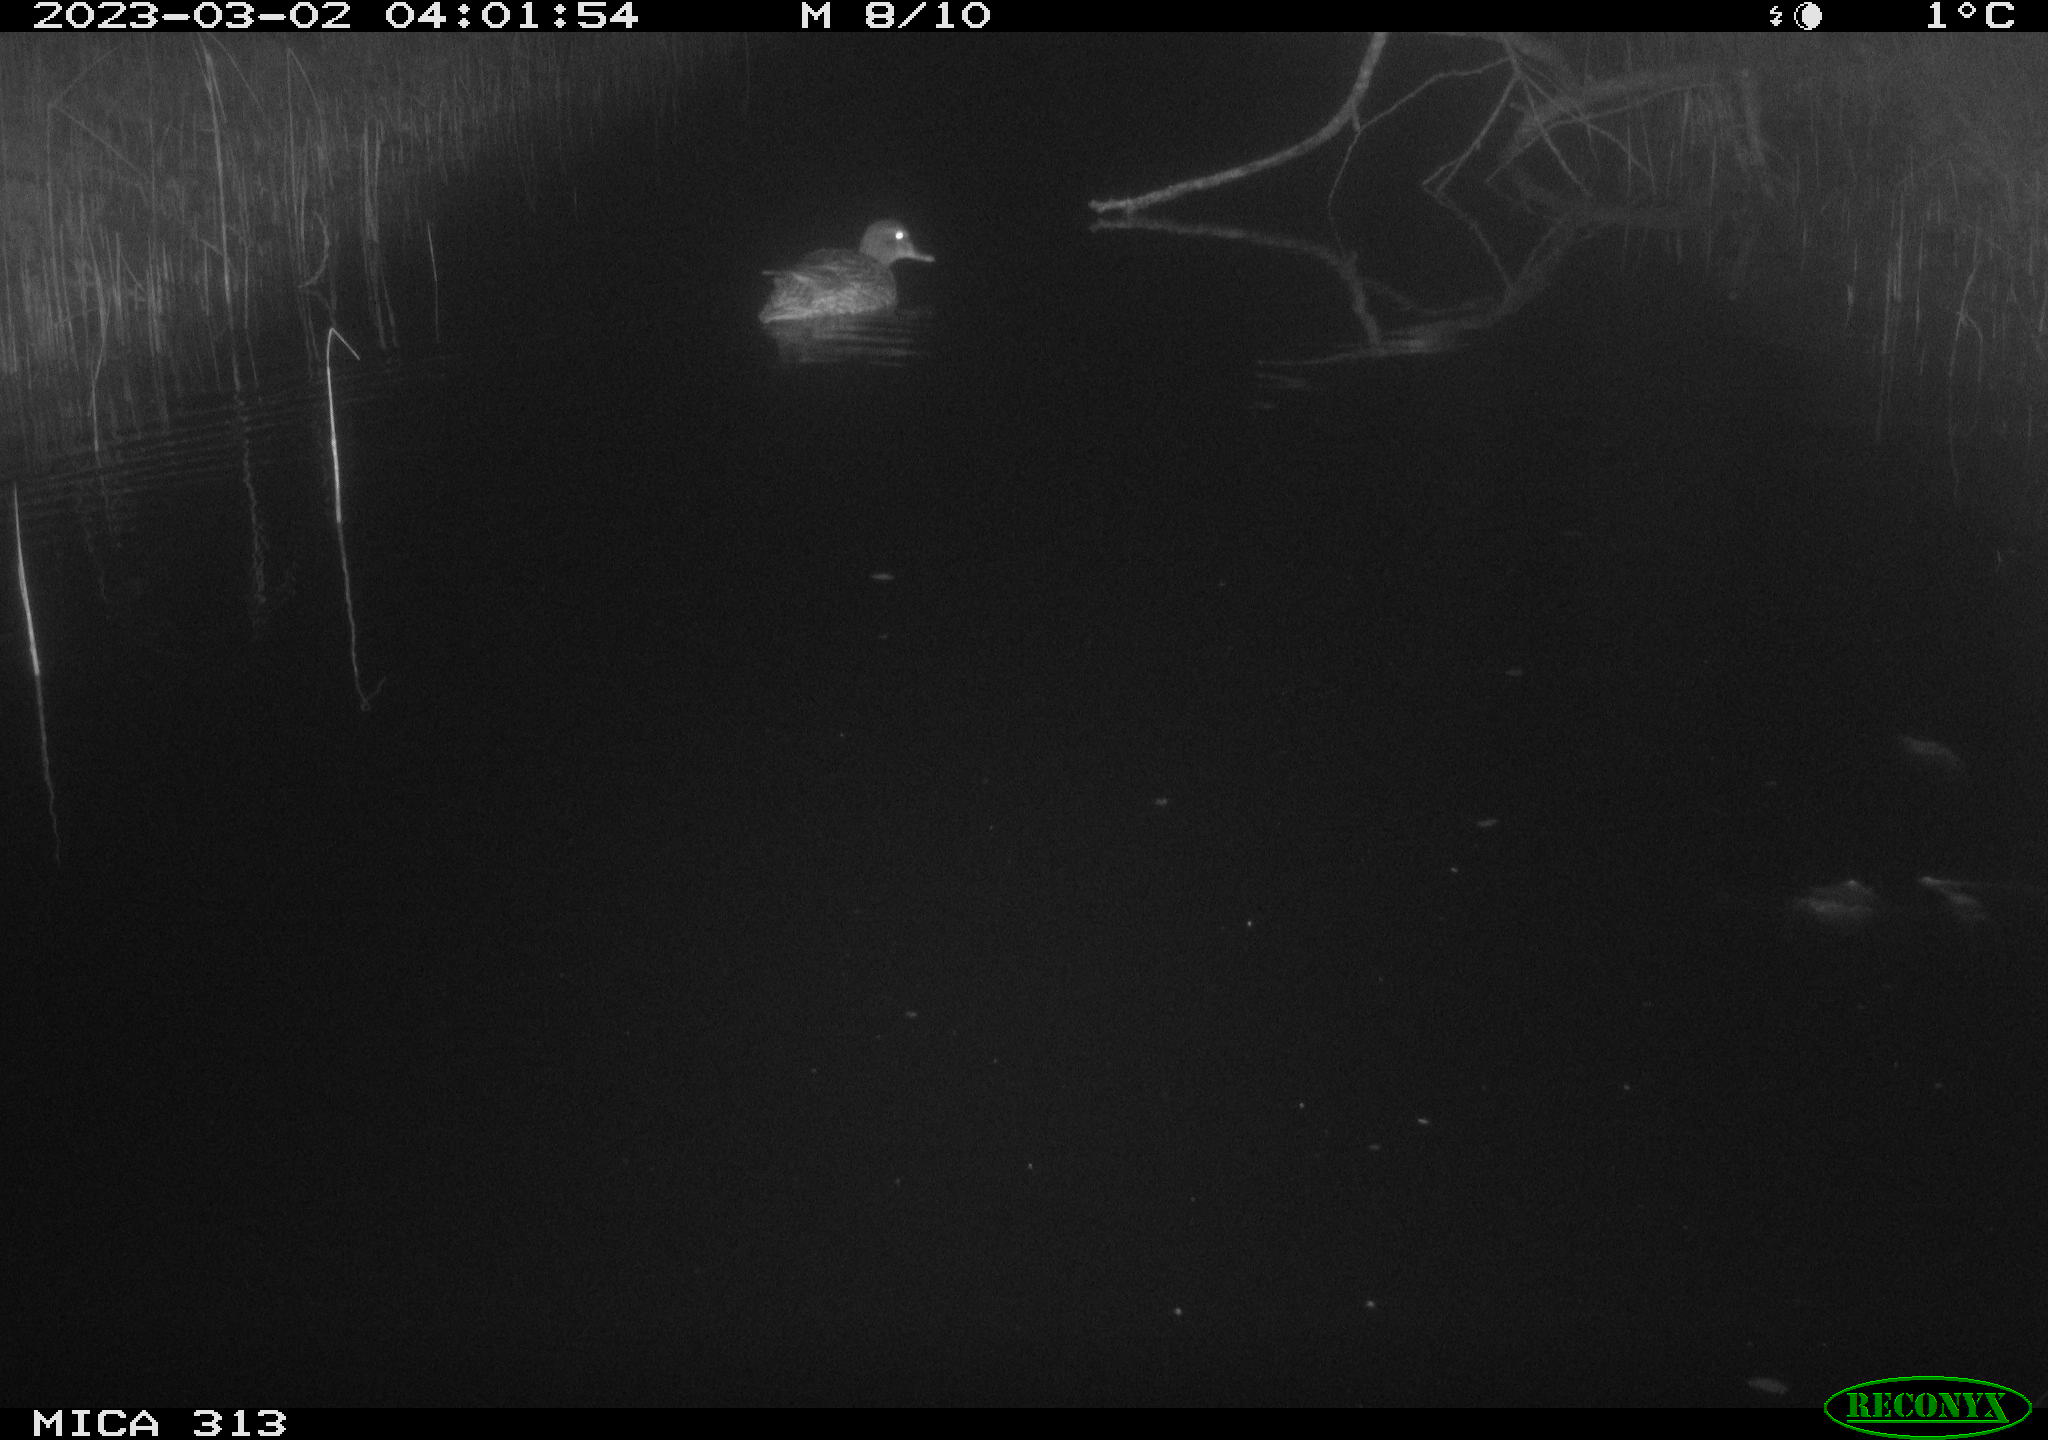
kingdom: Animalia
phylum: Chordata
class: Aves
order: Anseriformes
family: Anatidae
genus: Anas
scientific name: Anas
